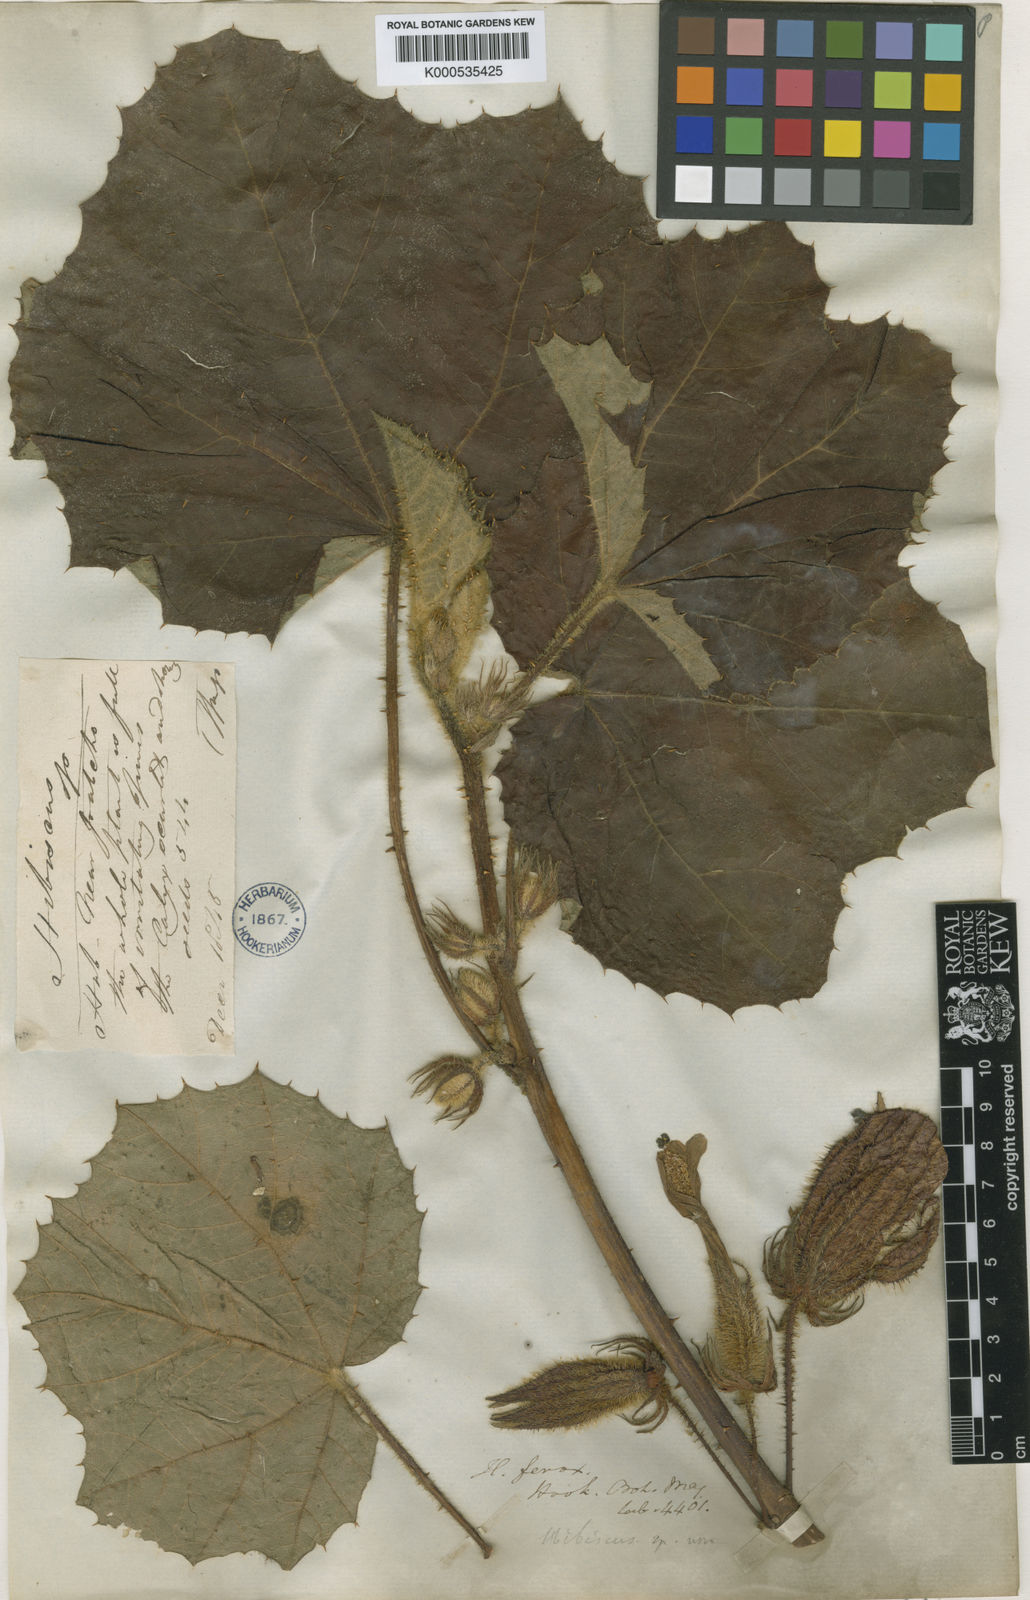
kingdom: Plantae
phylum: Tracheophyta
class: Magnoliopsida
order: Malvales
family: Malvaceae
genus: Wercklea
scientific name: Wercklea ferox
